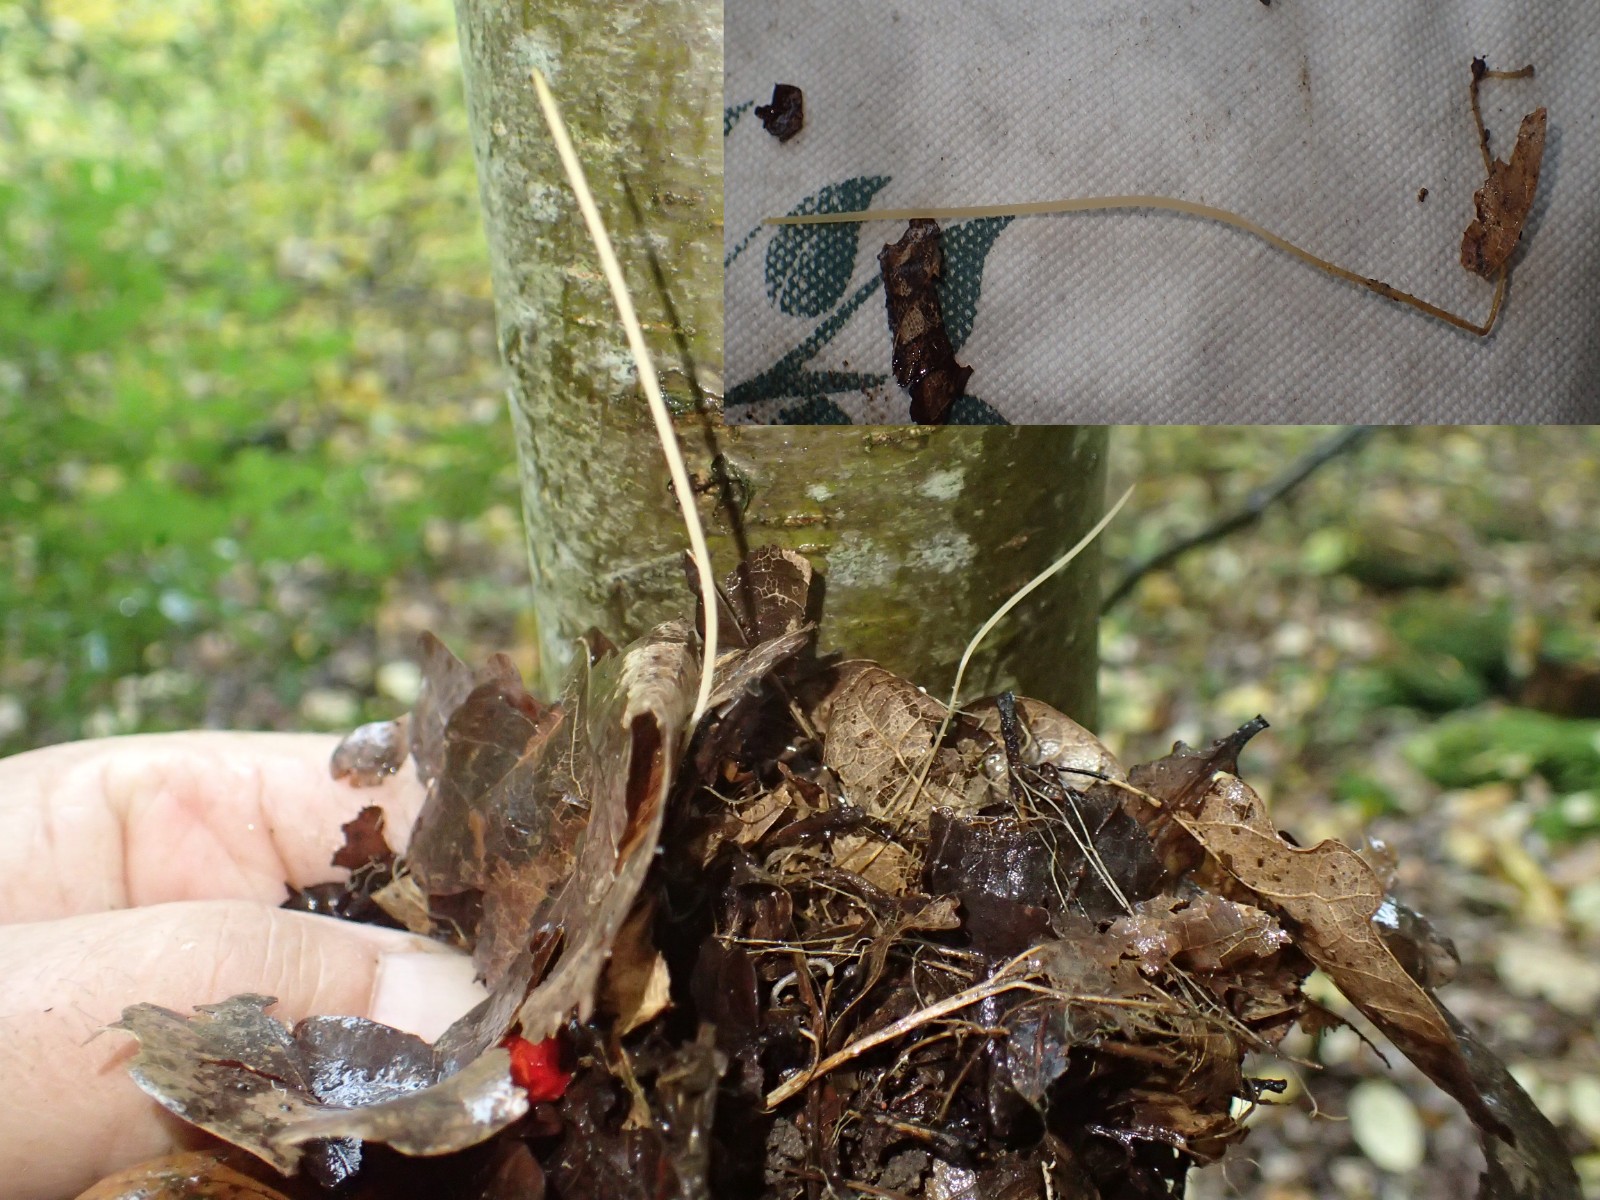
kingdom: Fungi
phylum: Basidiomycota
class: Agaricomycetes
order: Agaricales
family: Typhulaceae
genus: Typhula
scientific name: Typhula juncea
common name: trådagtig rørkølle
